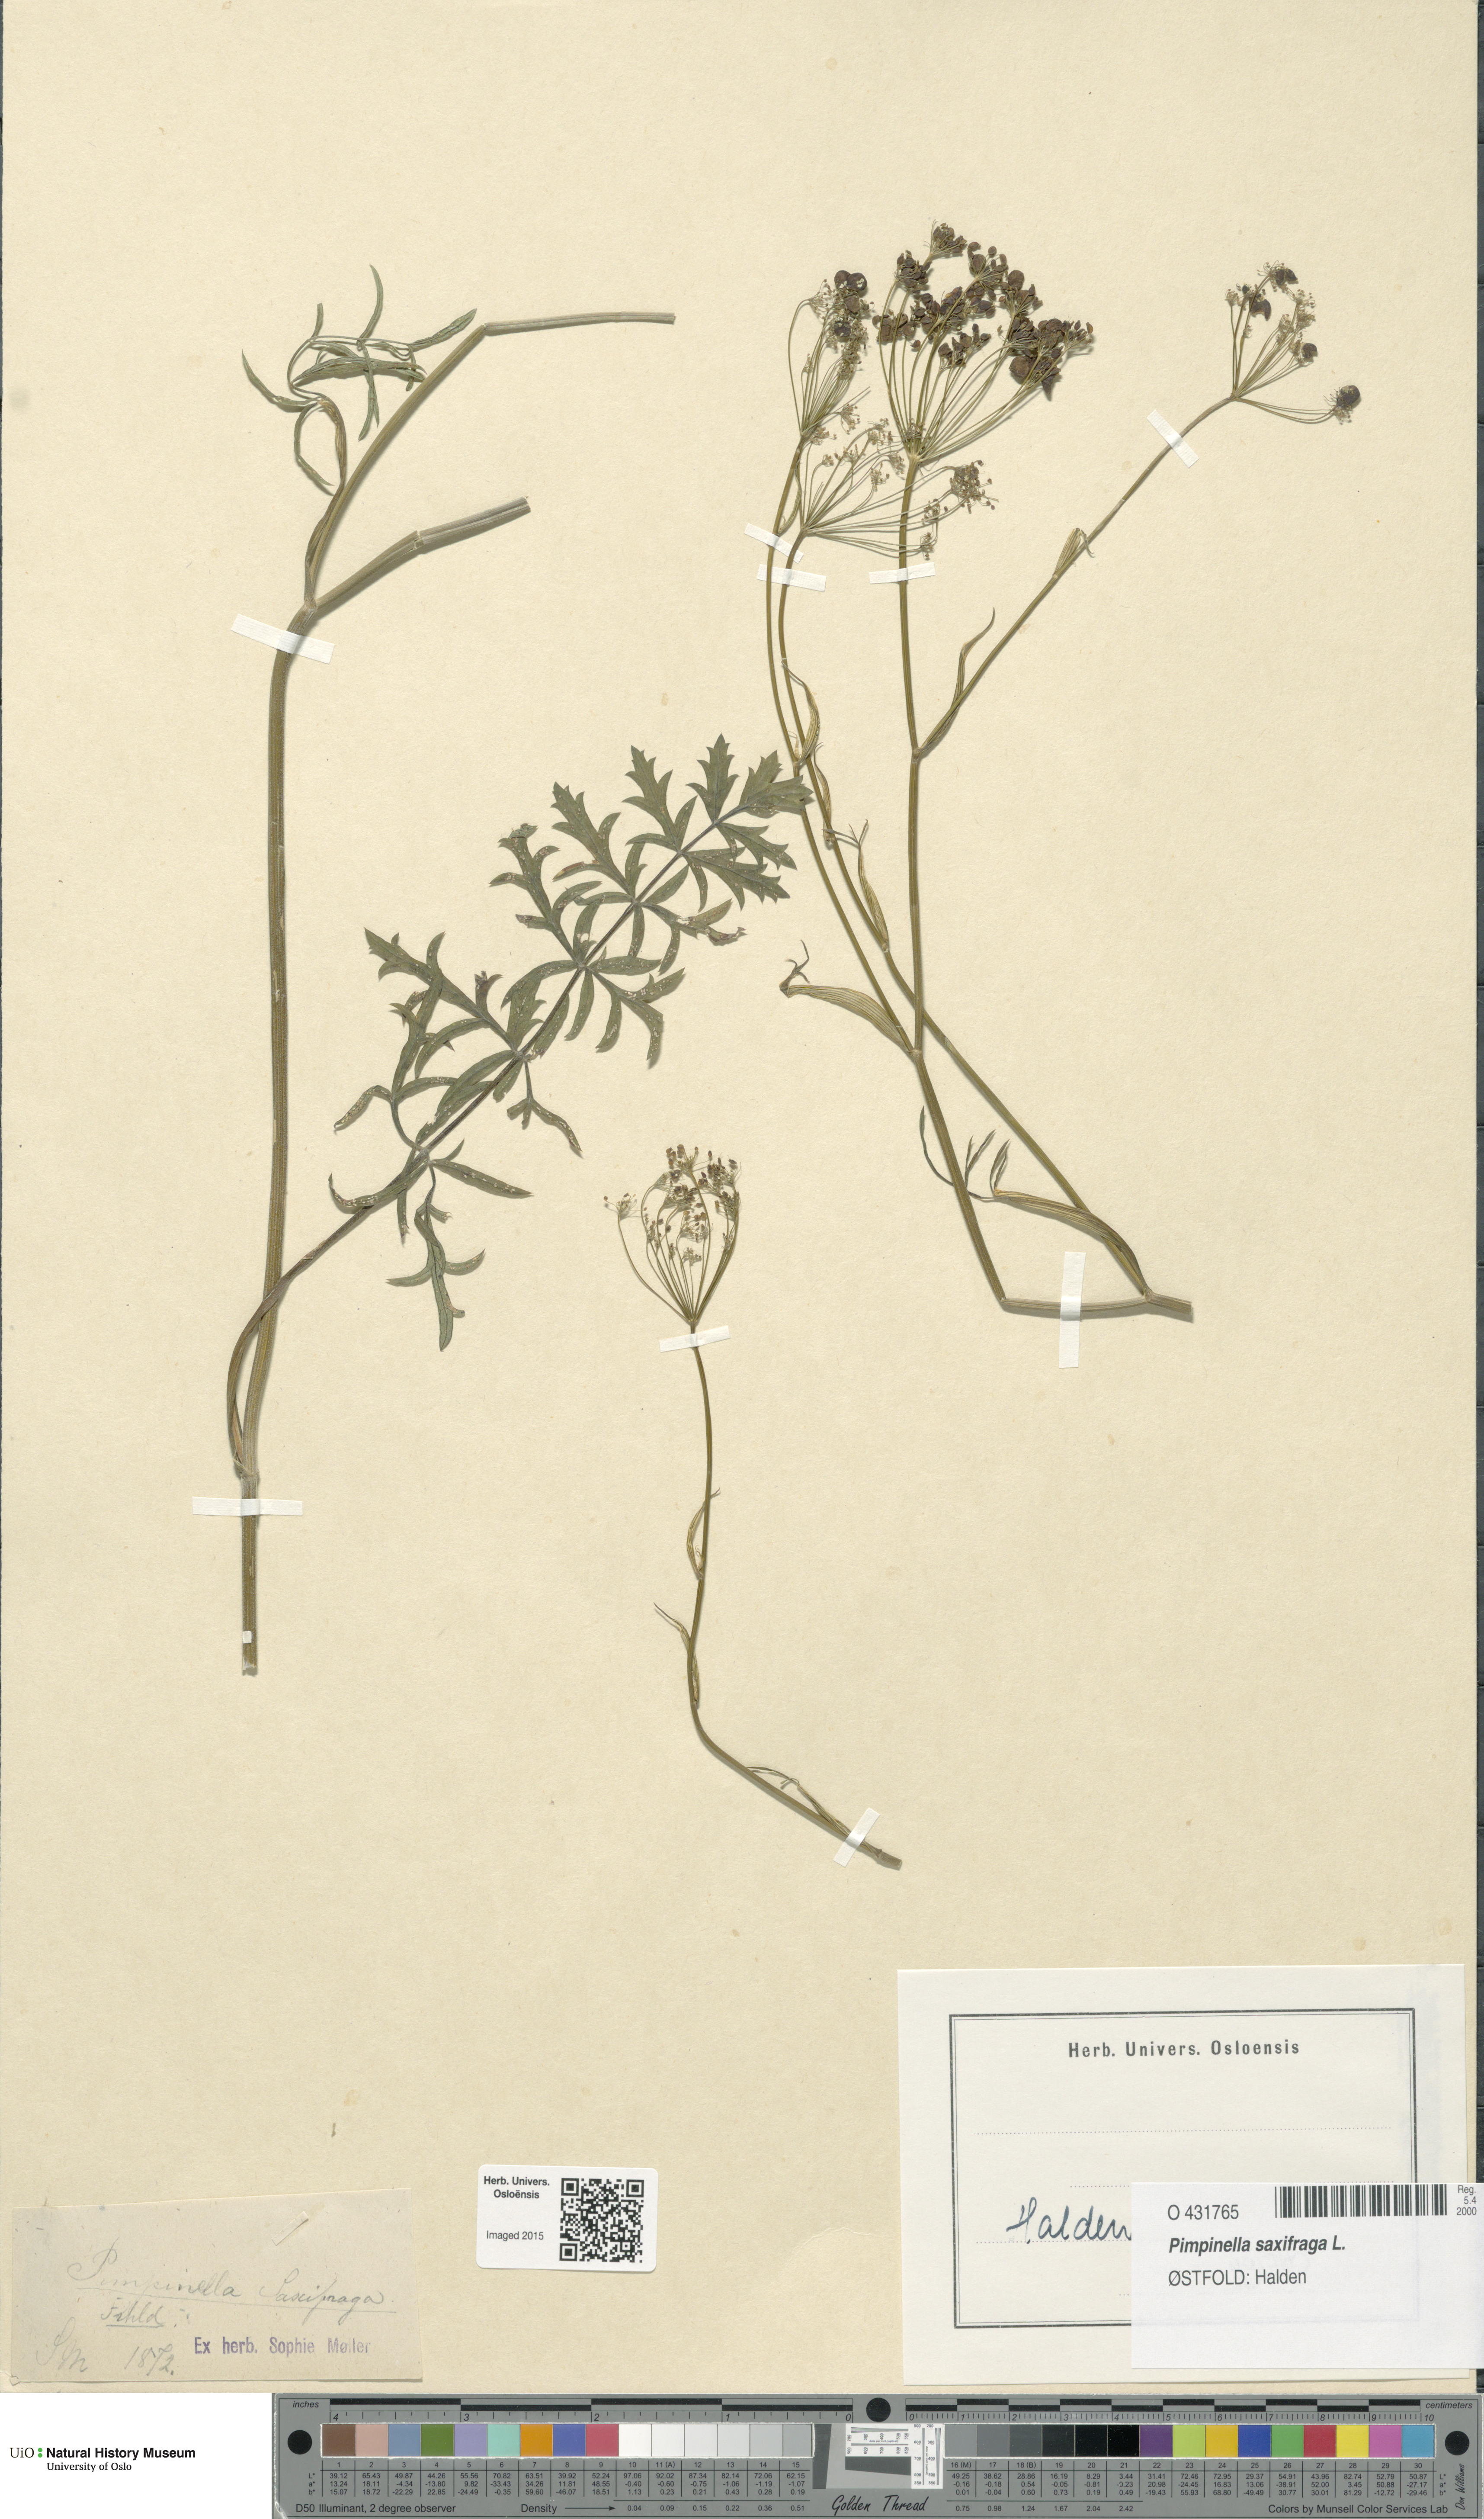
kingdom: Plantae
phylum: Tracheophyta
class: Magnoliopsida
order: Apiales
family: Apiaceae
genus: Pimpinella
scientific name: Pimpinella saxifraga
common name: Burnet-saxifrage
